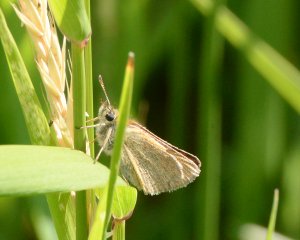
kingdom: Animalia
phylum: Arthropoda
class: Insecta
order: Lepidoptera
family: Hesperiidae
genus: Thymelicus
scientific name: Thymelicus lineola
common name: European Skipper
